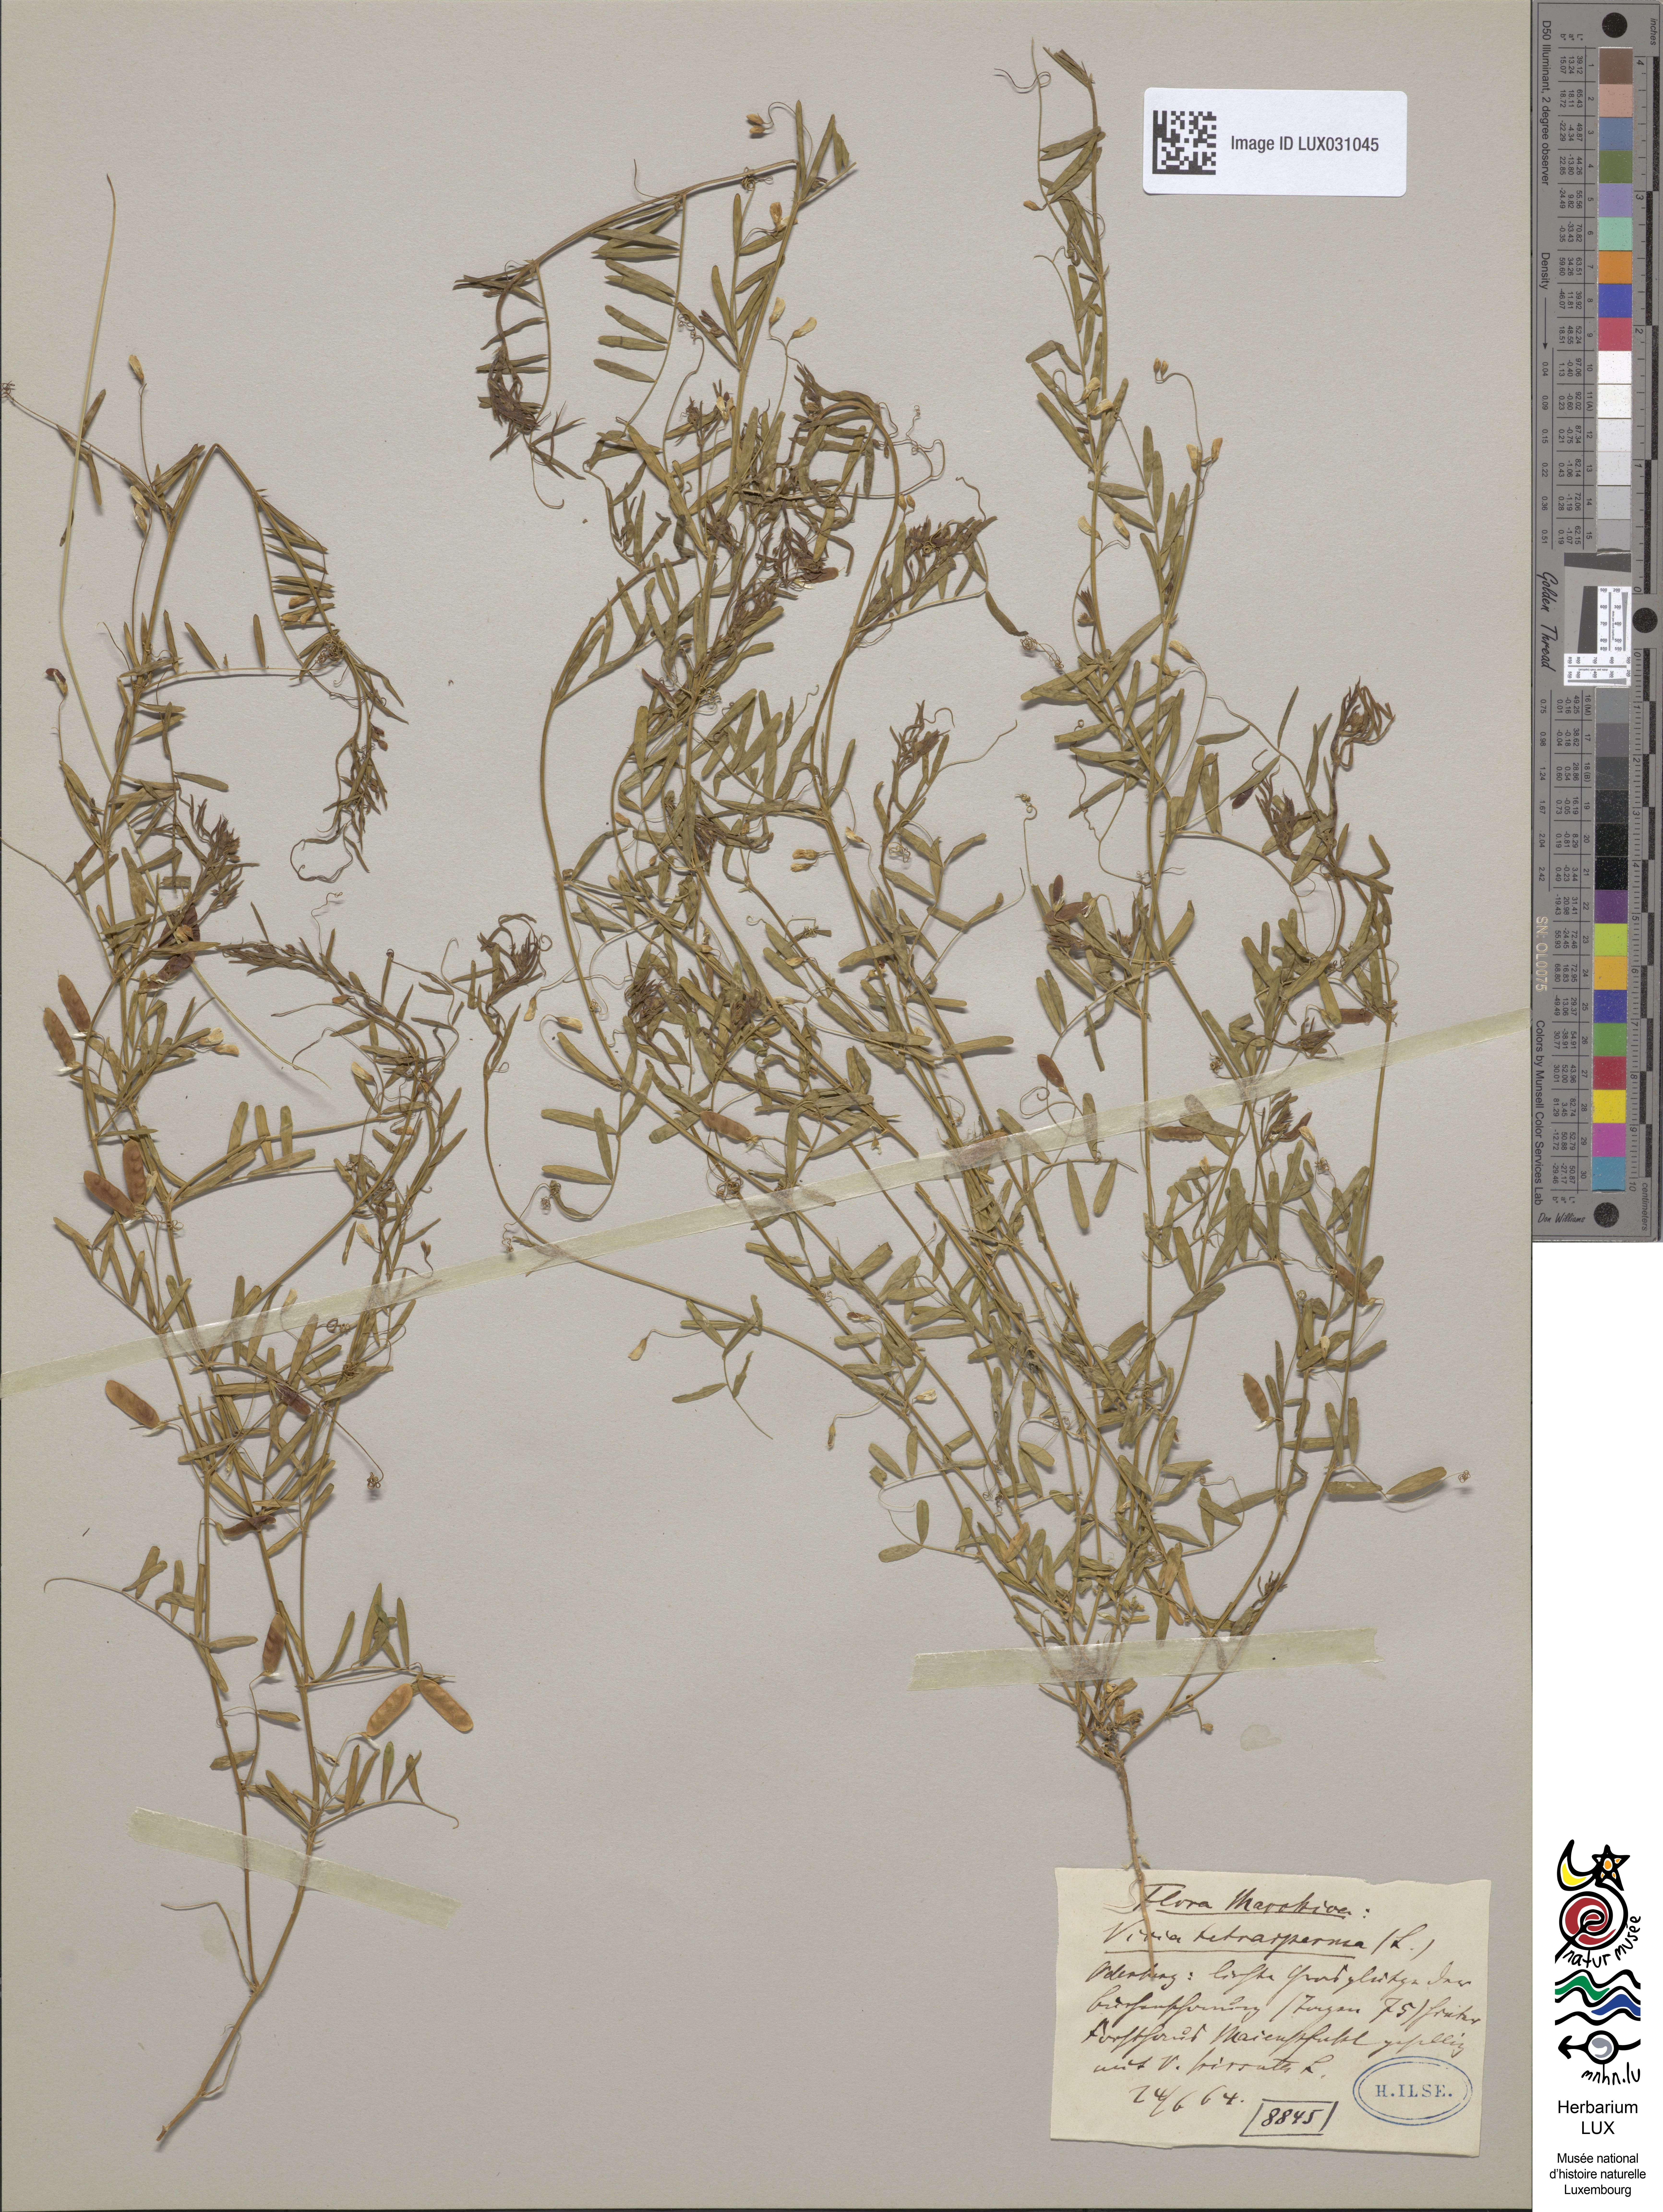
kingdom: Plantae
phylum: Tracheophyta
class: Magnoliopsida
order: Fabales
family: Fabaceae
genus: Vicia
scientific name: Vicia tetrasperma
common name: Smooth tare
